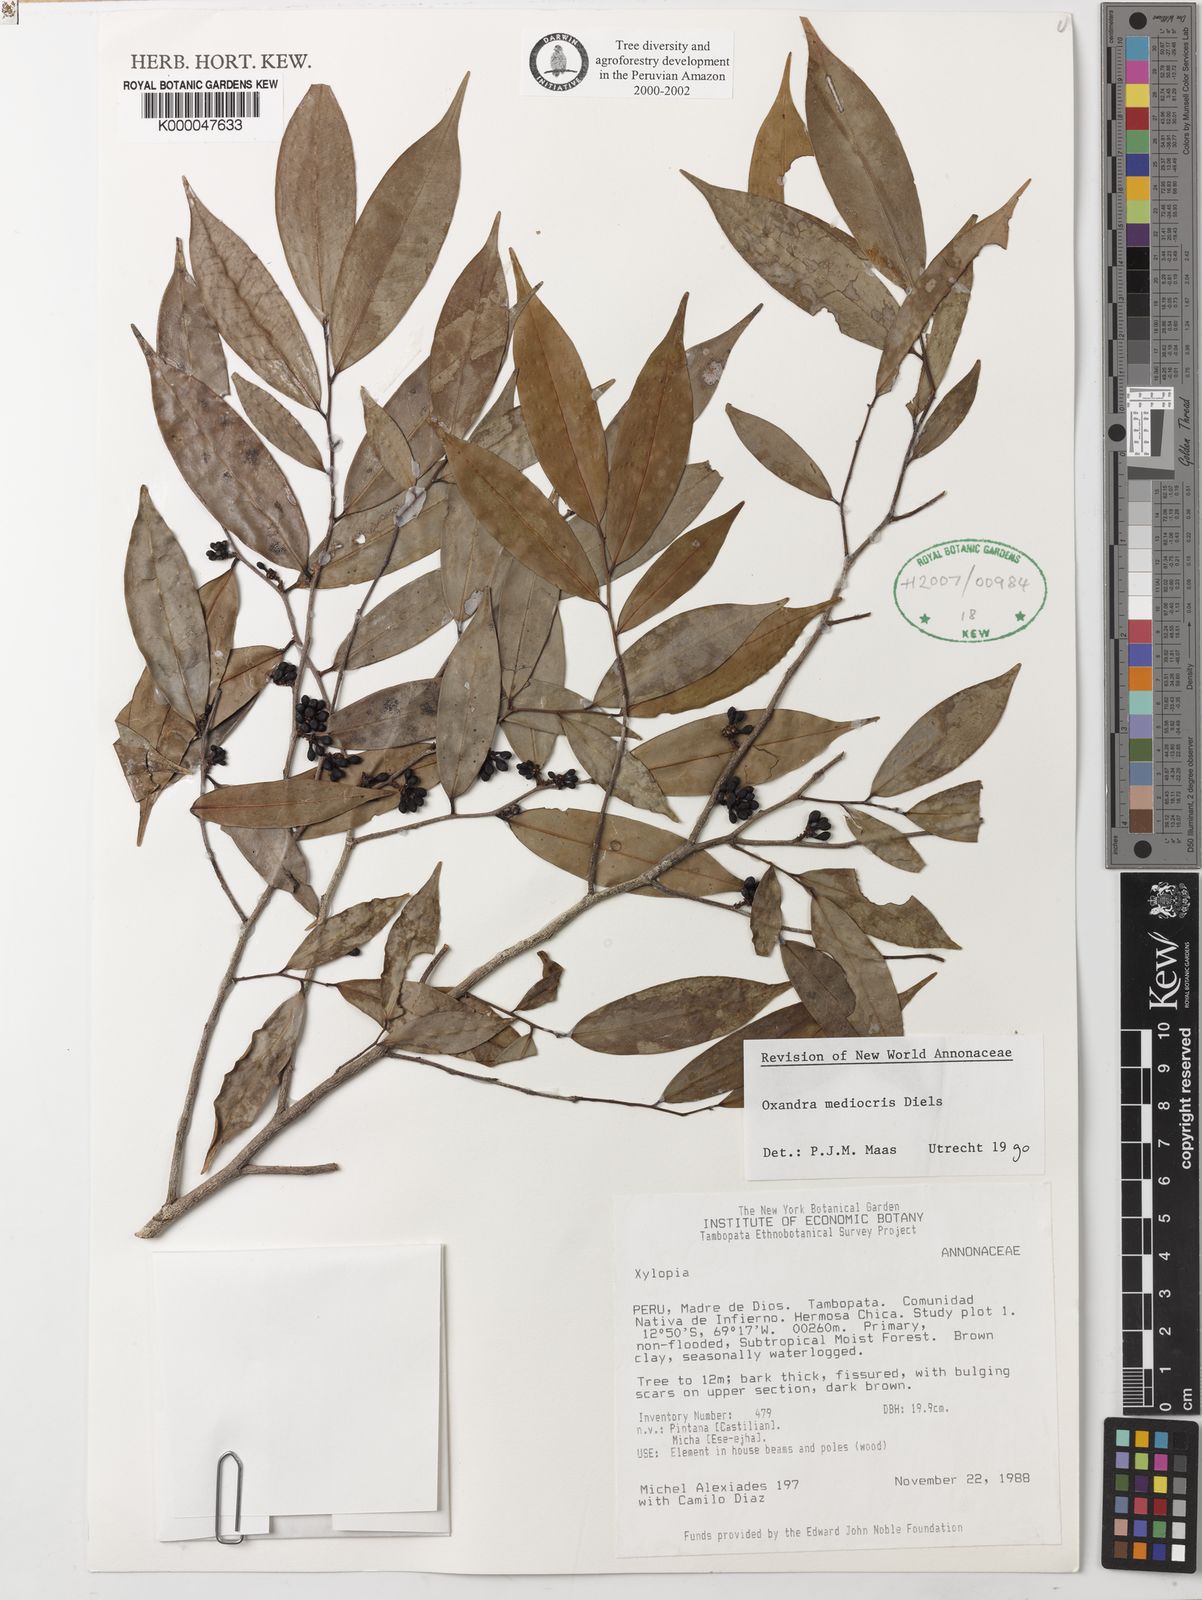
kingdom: Plantae
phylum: Tracheophyta
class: Magnoliopsida
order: Magnoliales
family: Annonaceae
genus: Oxandra
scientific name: Oxandra mediocris
